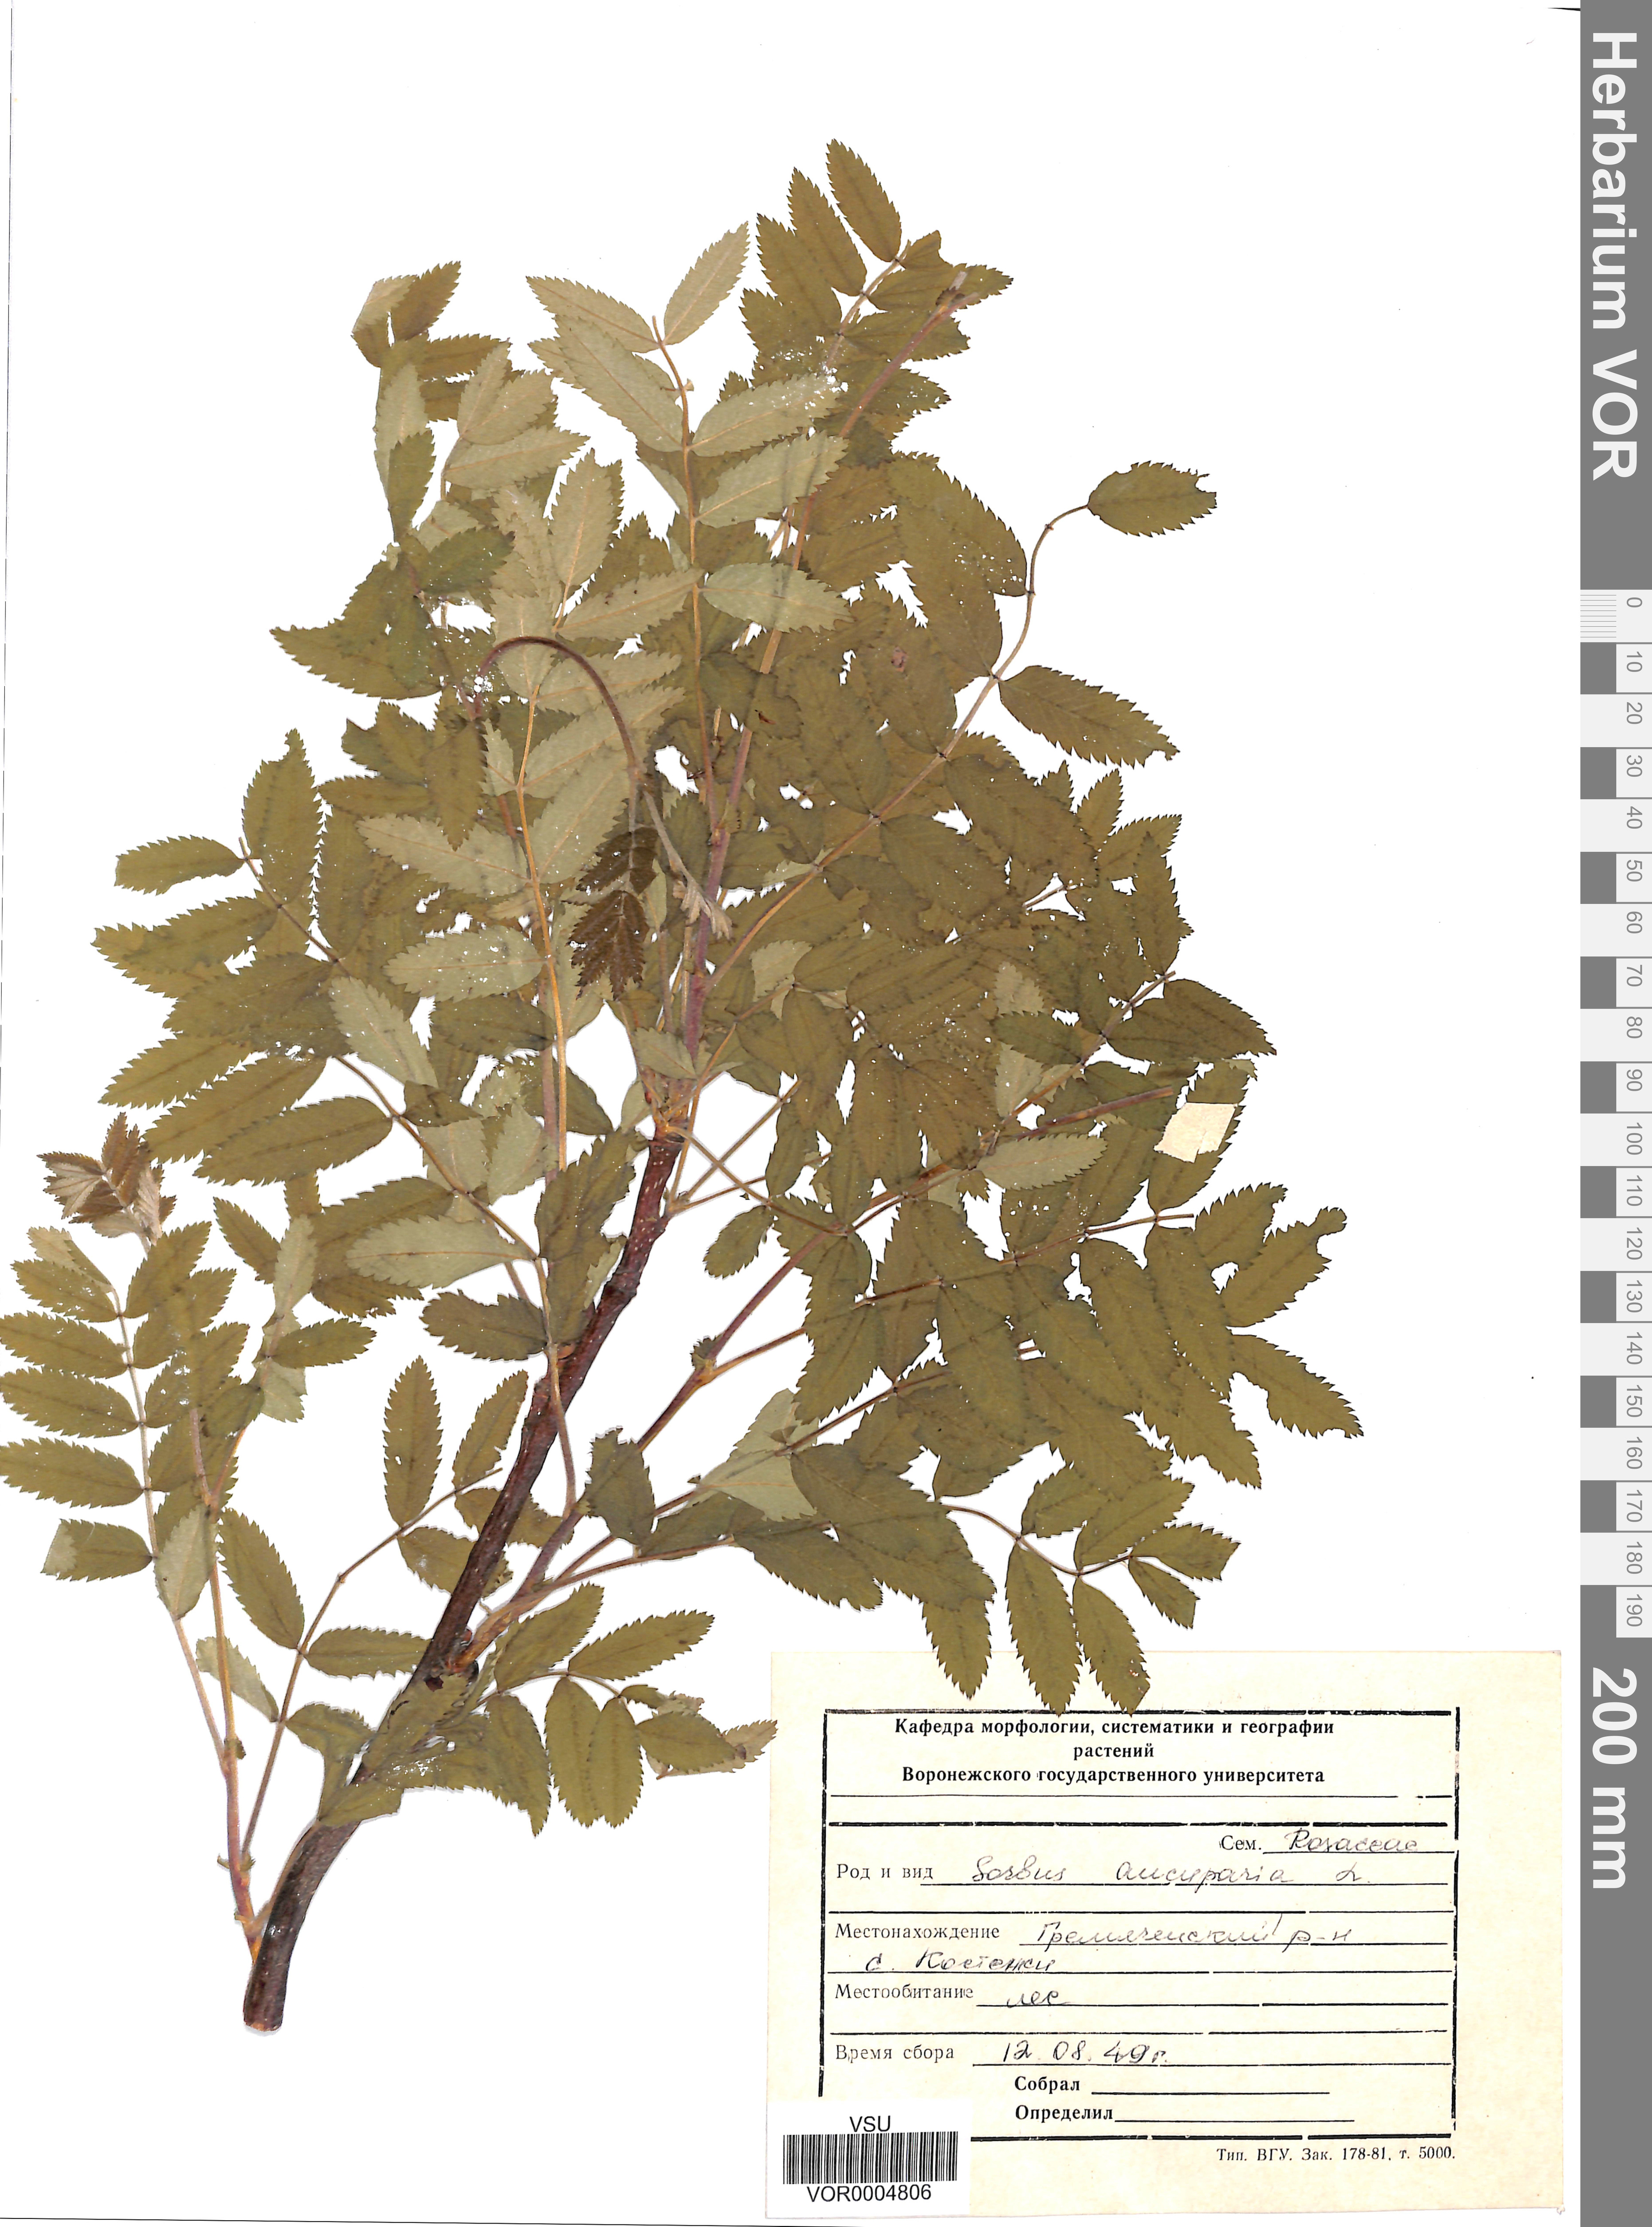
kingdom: Plantae
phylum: Tracheophyta
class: Magnoliopsida
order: Rosales
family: Rosaceae
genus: Sorbus
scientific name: Sorbus aucuparia
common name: Rowan
